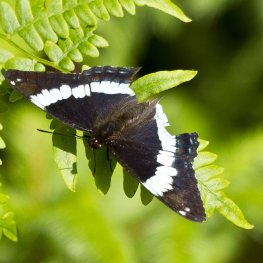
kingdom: Animalia
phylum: Arthropoda
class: Insecta
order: Lepidoptera
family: Nymphalidae
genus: Limenitis
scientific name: Limenitis arthemis
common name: Red-spotted Admiral
